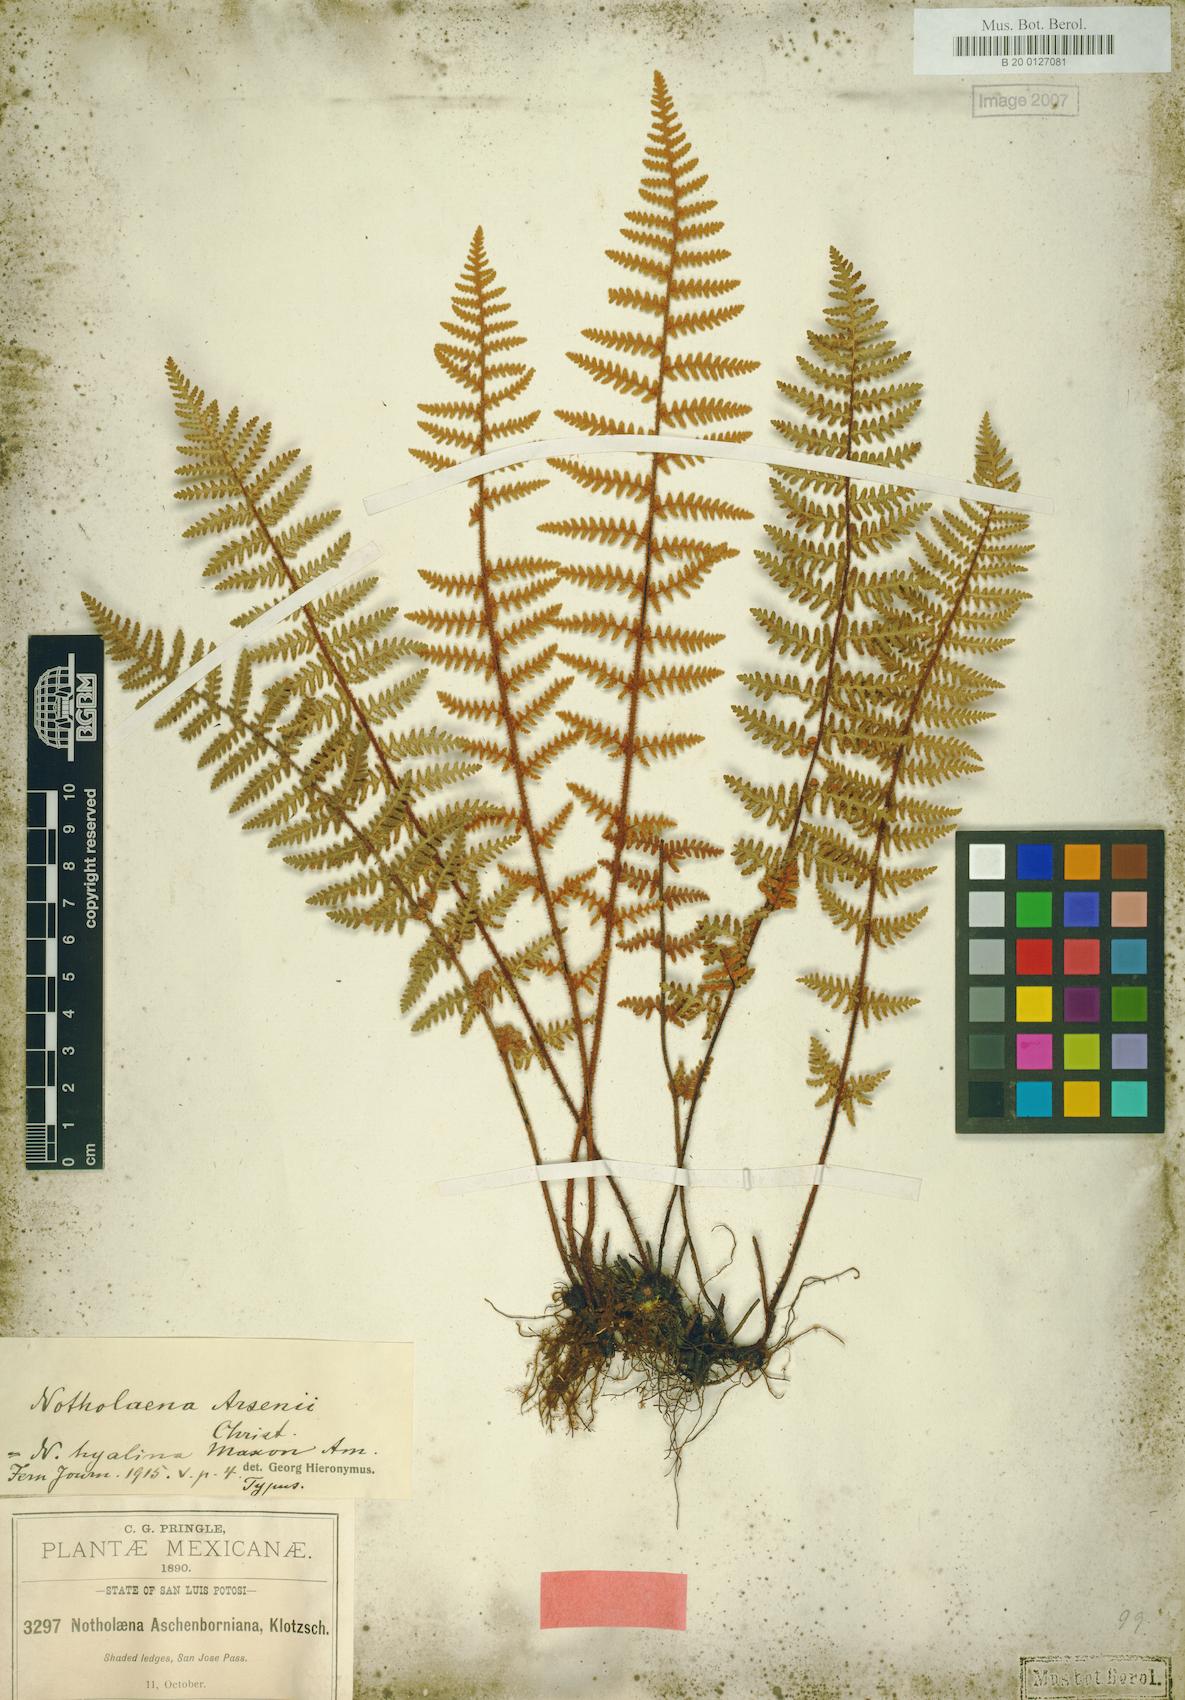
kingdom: Plantae
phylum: Tracheophyta
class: Polypodiopsida
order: Polypodiales
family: Pteridaceae
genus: Notholaena
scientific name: Notholaena galeottii
